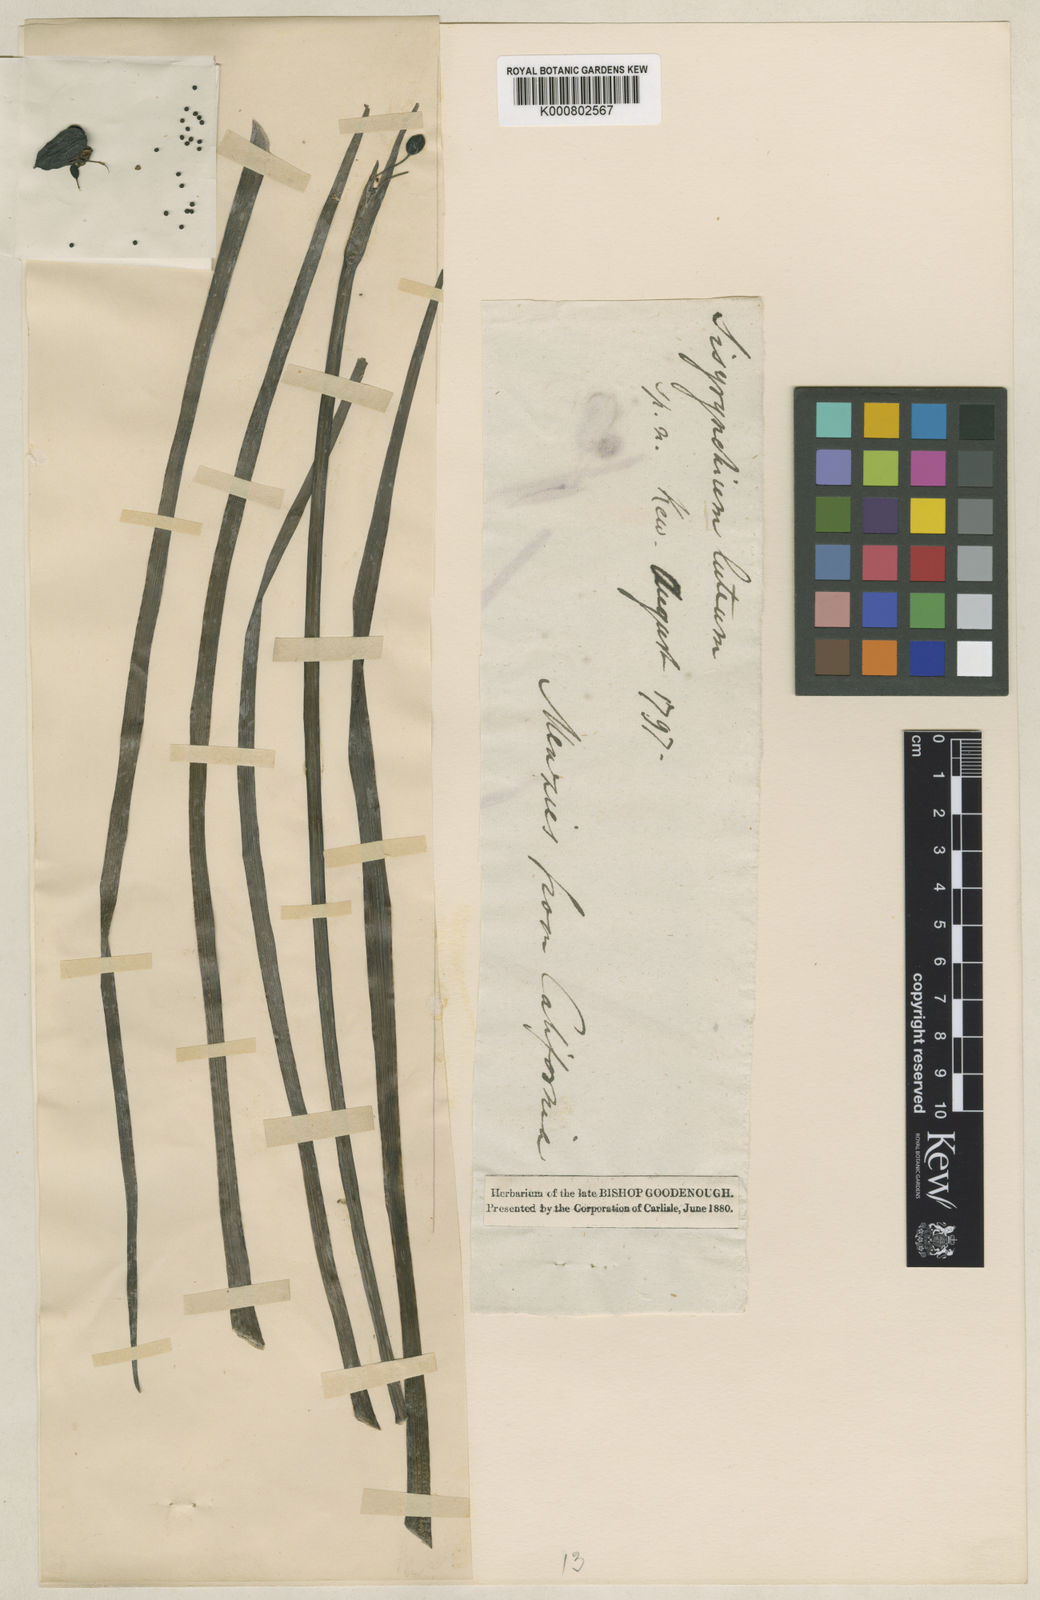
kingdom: Plantae
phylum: Tracheophyta
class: Liliopsida
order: Asparagales
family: Iridaceae
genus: Sisyrinchium
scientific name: Sisyrinchium graminifolium
